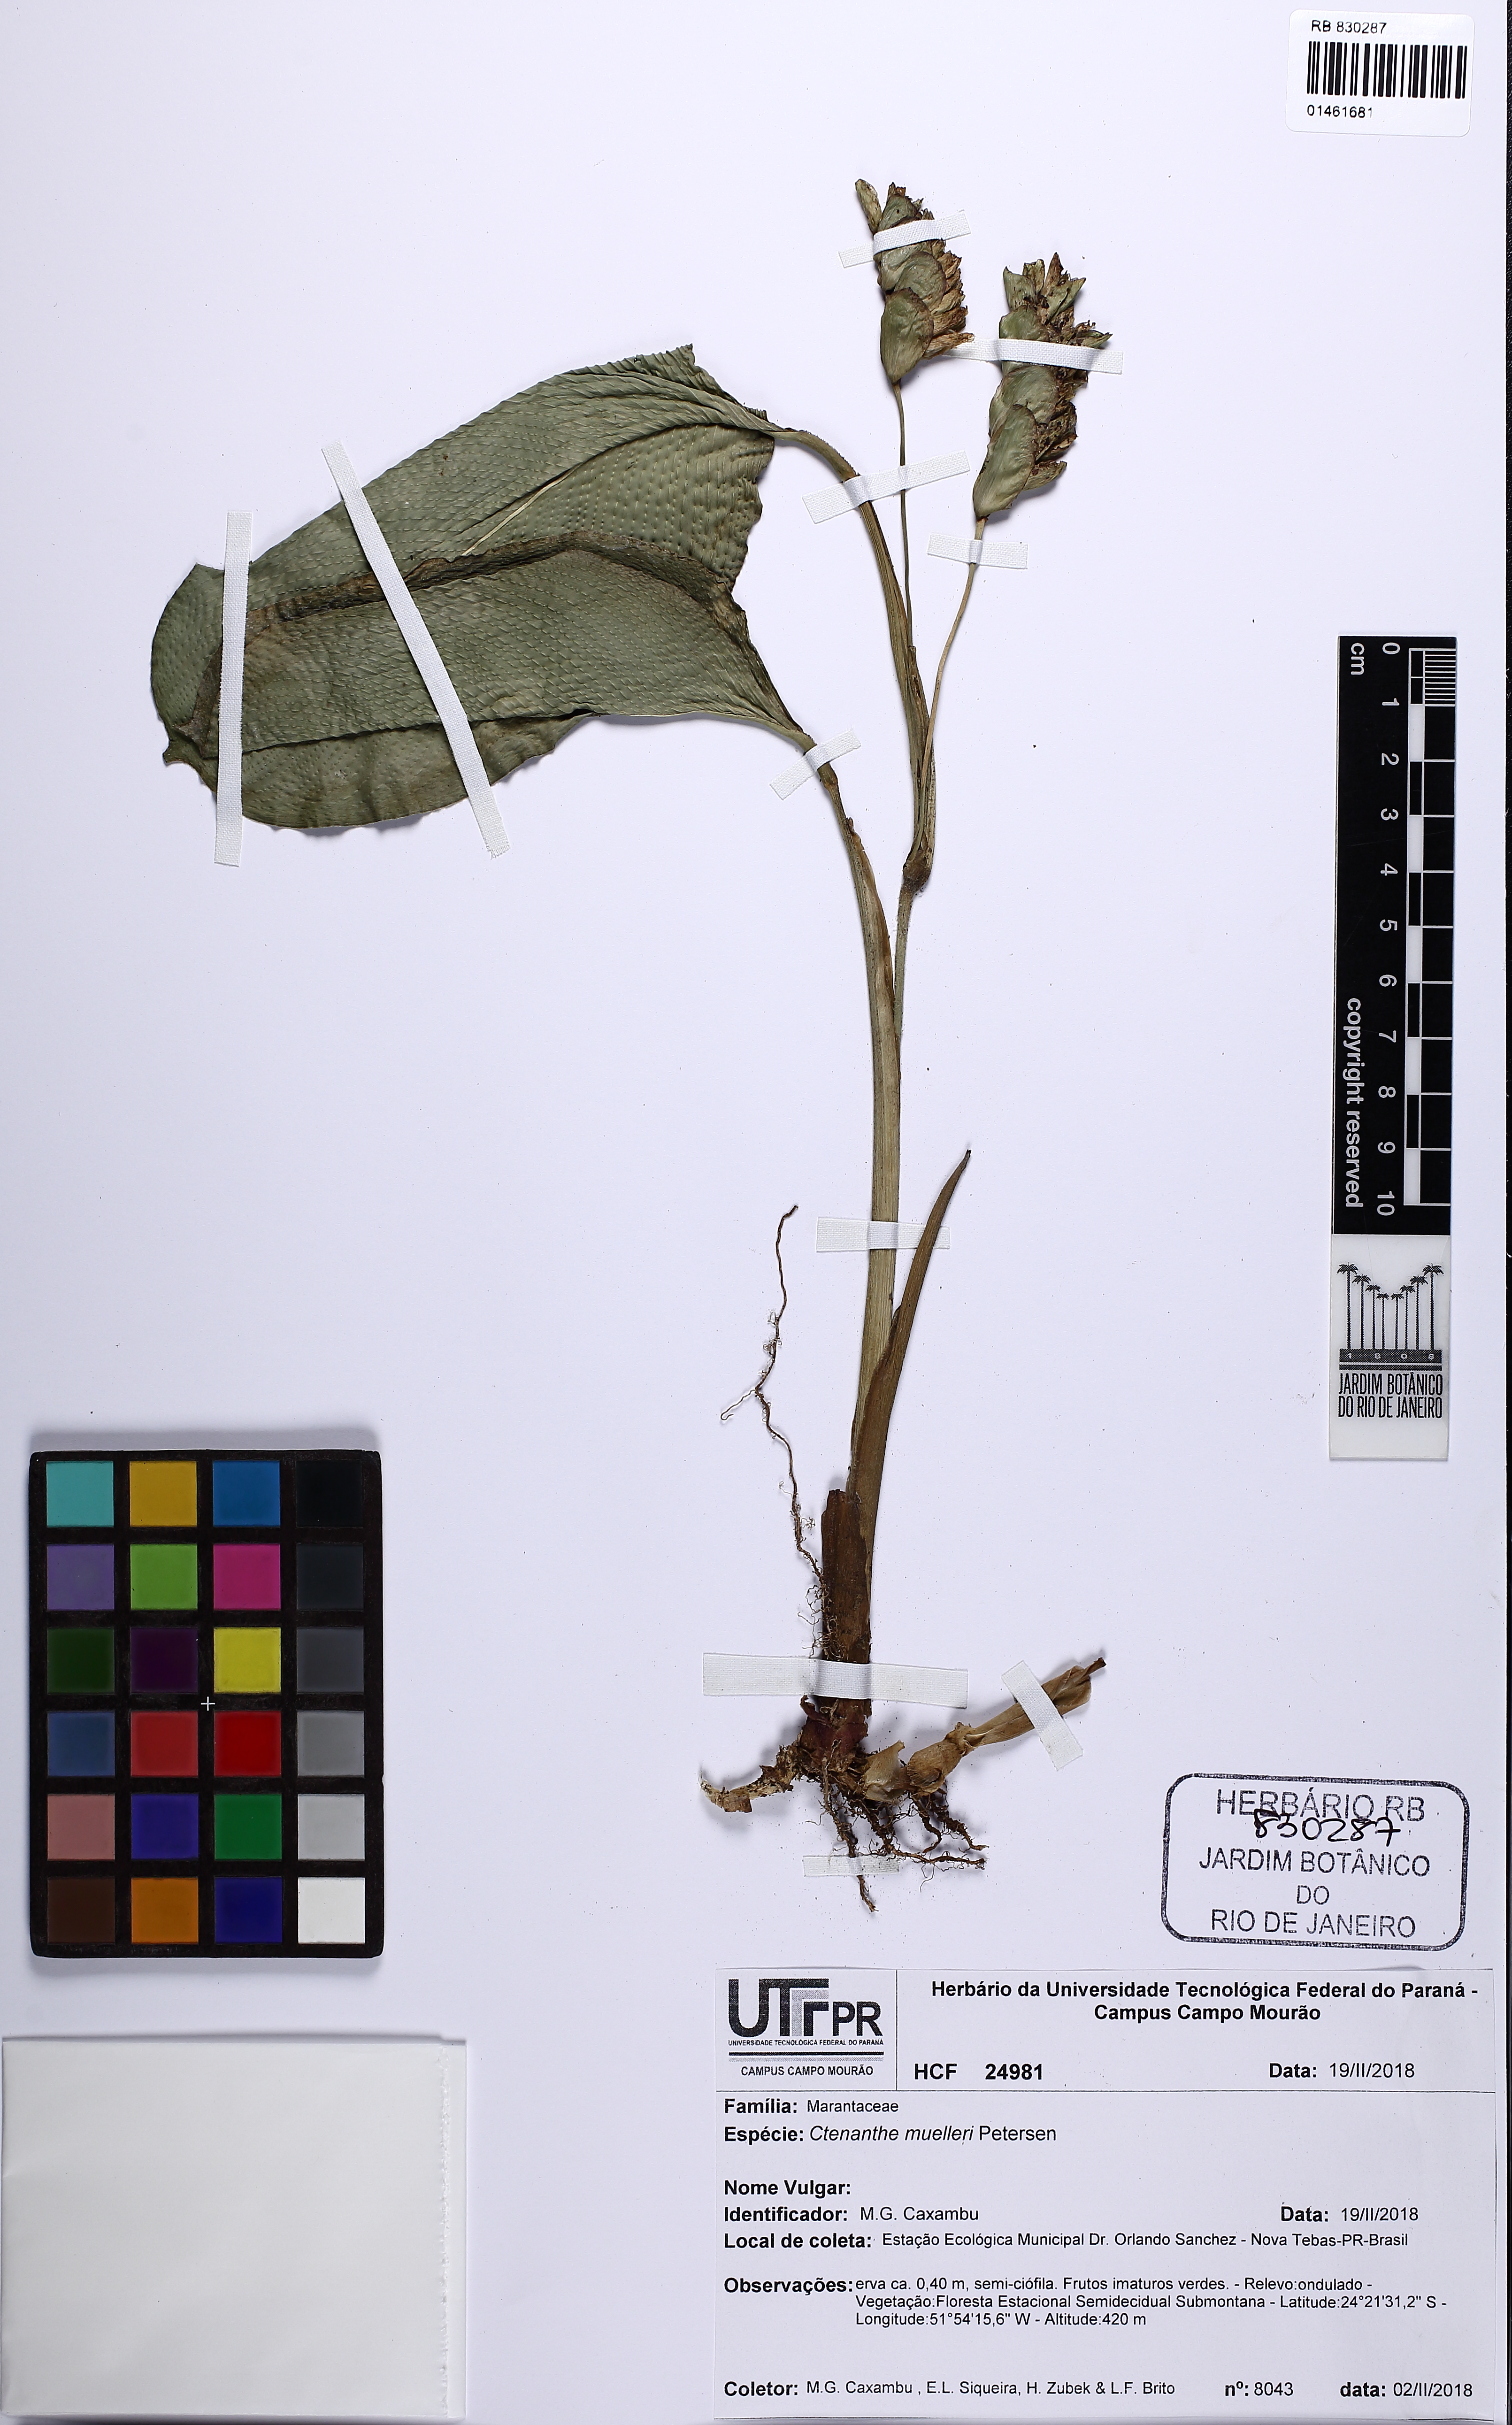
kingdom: Plantae
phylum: Tracheophyta
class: Liliopsida
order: Zingiberales
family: Marantaceae
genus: Ctenanthe
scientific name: Ctenanthe muelleri
